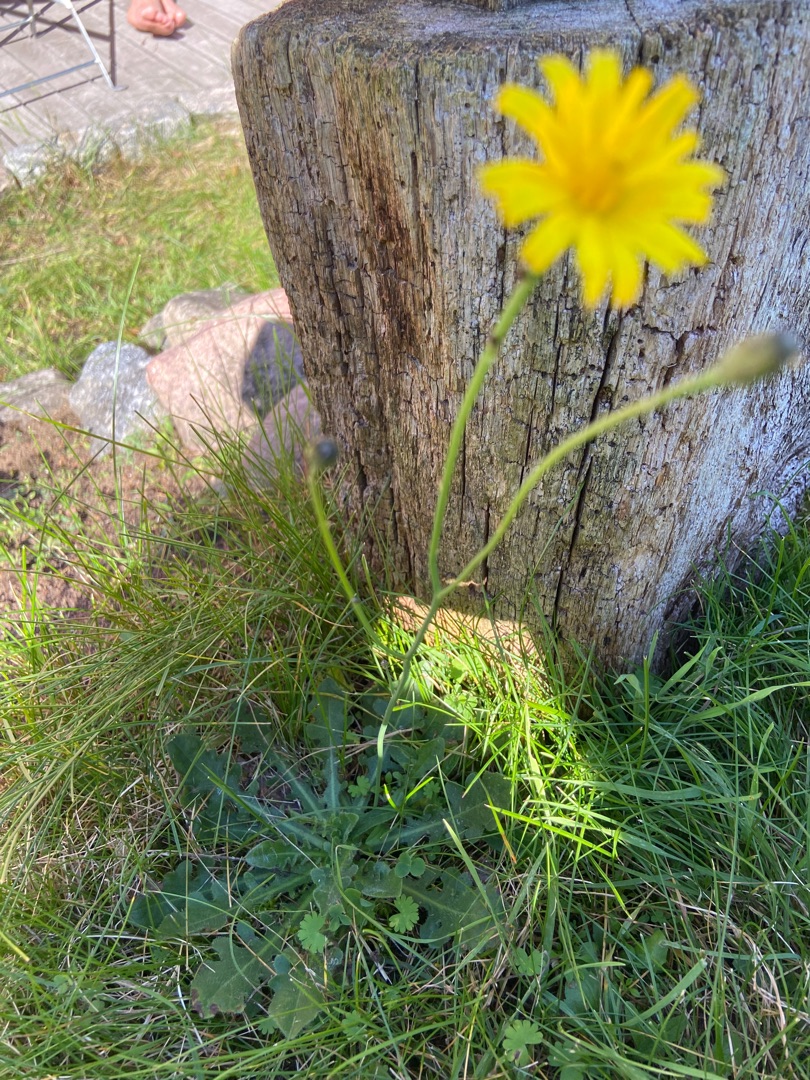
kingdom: Plantae
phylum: Tracheophyta
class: Magnoliopsida
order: Asterales
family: Asteraceae
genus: Hypochaeris
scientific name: Hypochaeris radicata
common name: Almindelig kongepen
